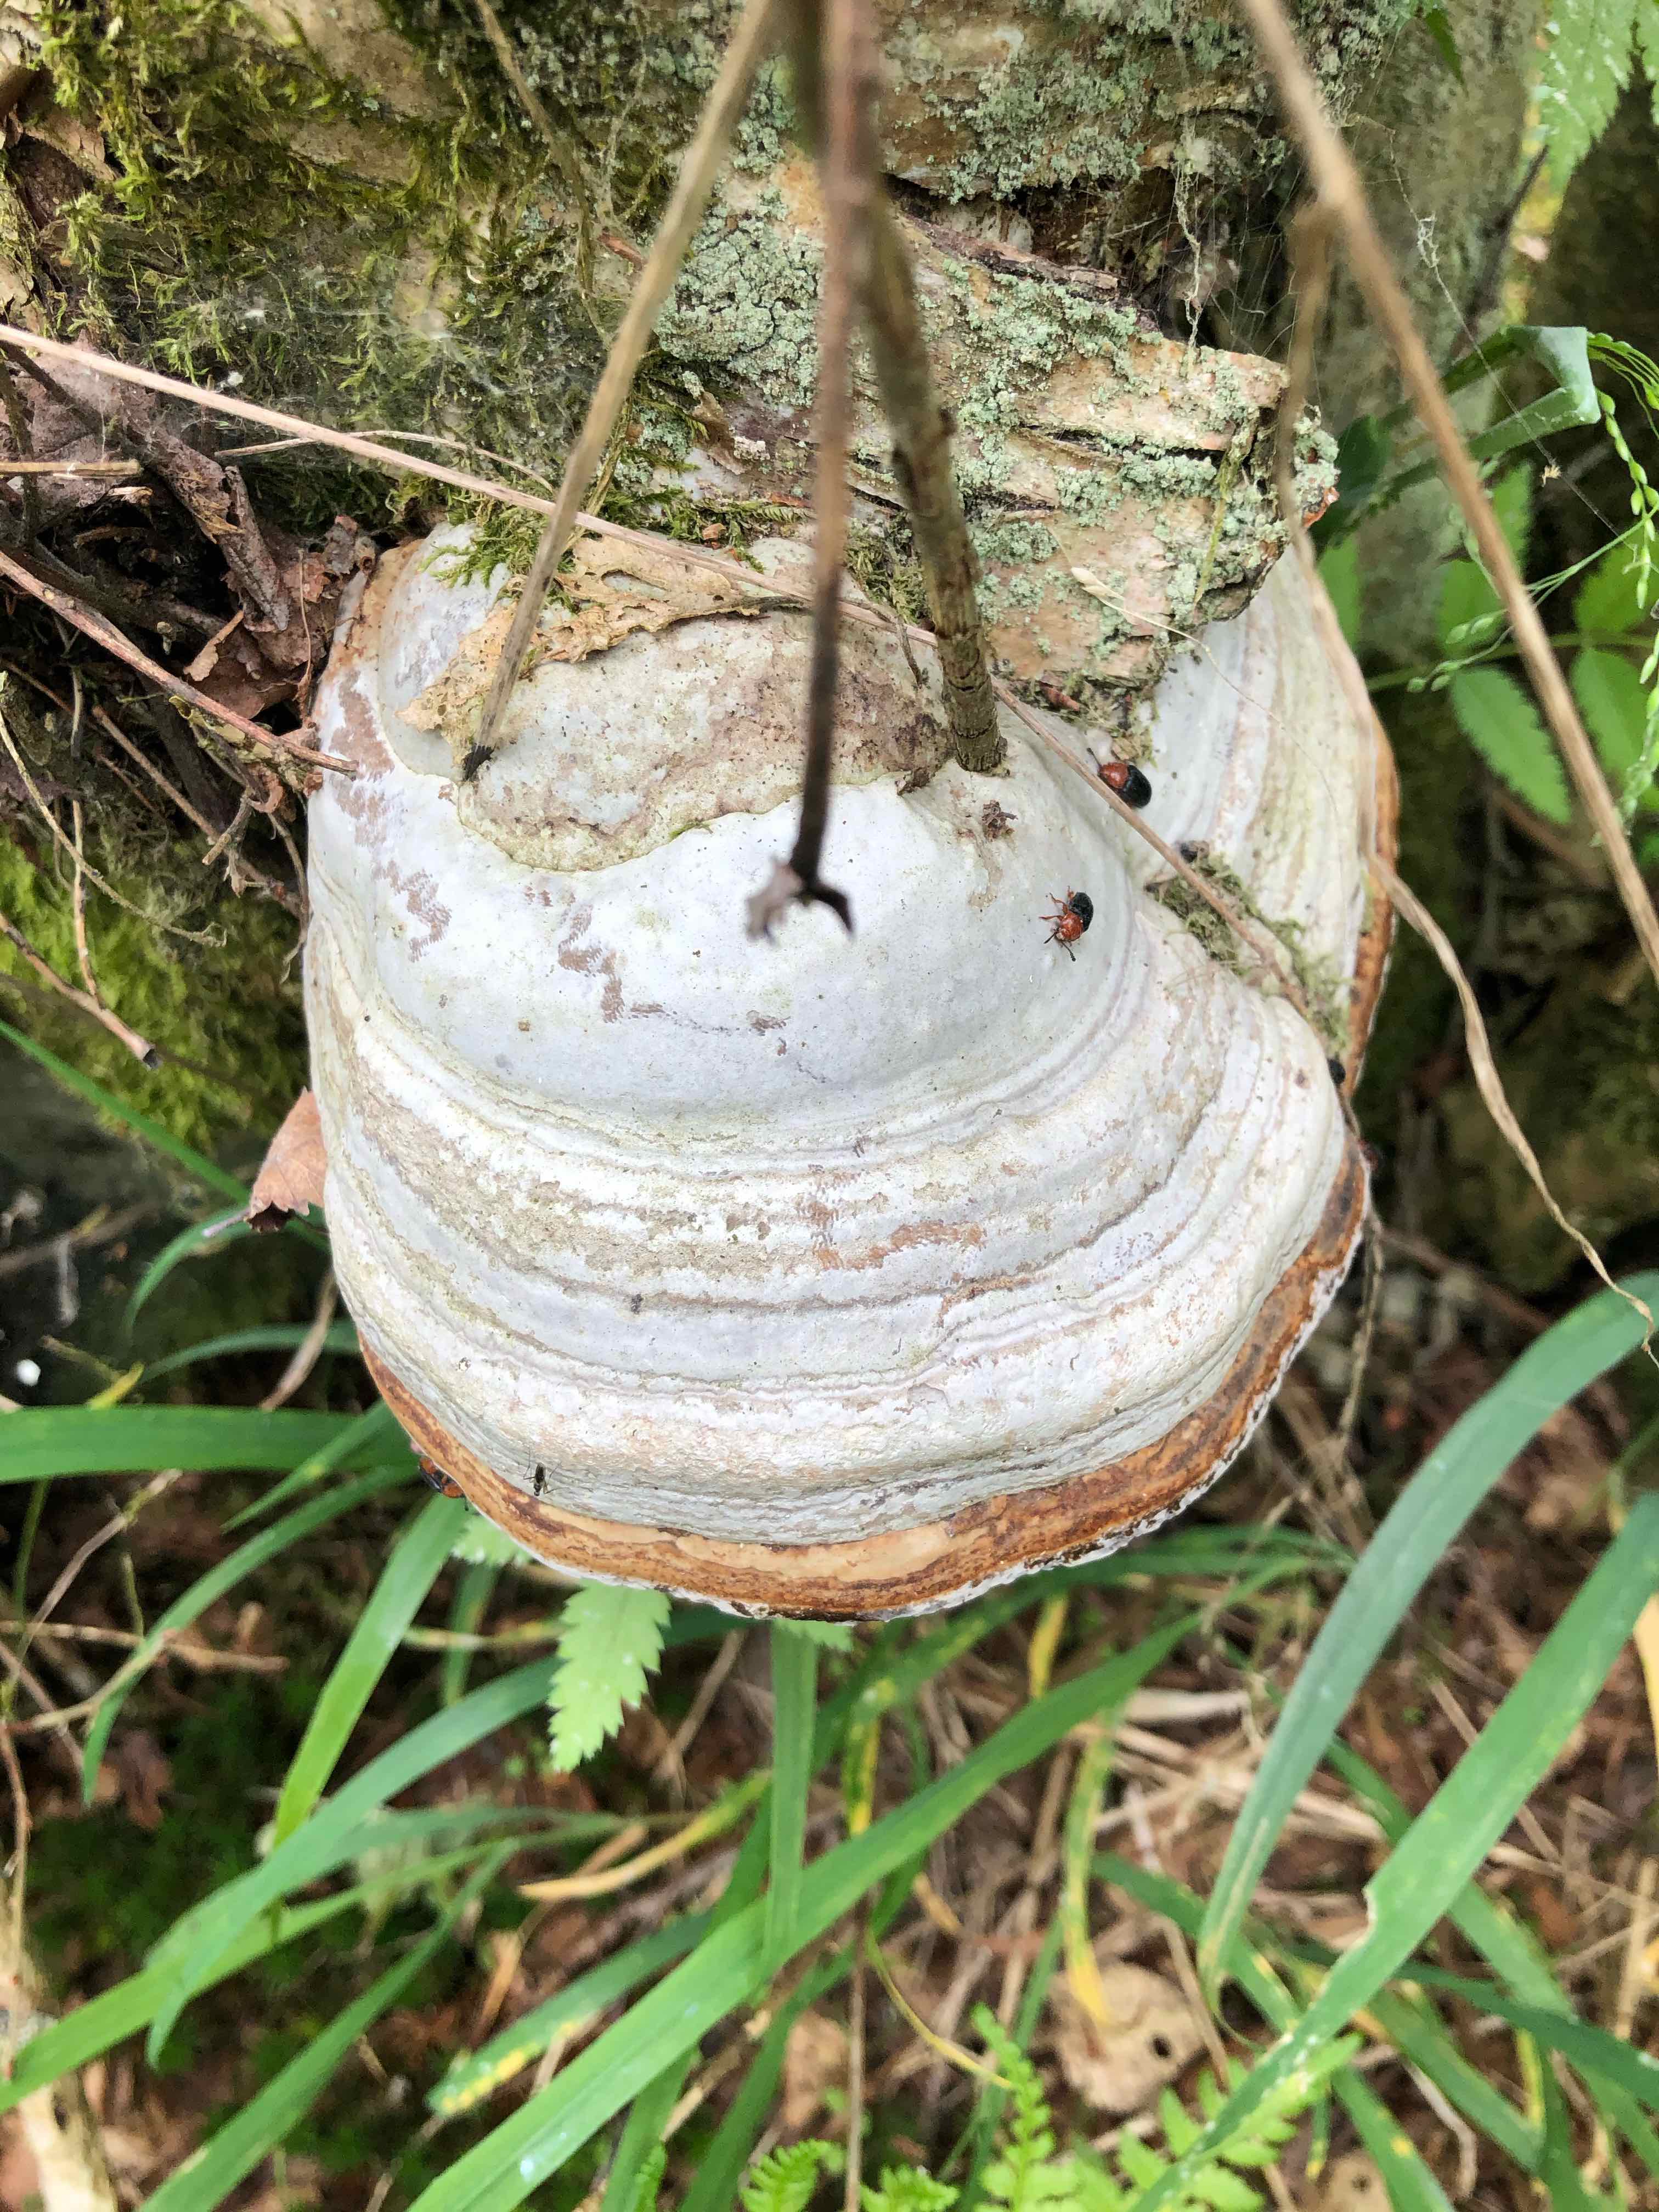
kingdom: Fungi
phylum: Basidiomycota
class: Agaricomycetes
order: Polyporales
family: Polyporaceae
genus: Fomes
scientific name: Fomes fomentarius
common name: tøndersvamp
